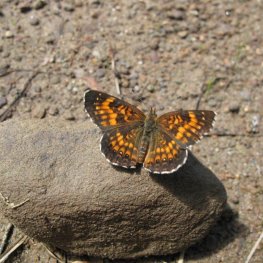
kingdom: Animalia
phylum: Arthropoda
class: Insecta
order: Lepidoptera
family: Nymphalidae
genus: Chlosyne
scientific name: Chlosyne harrisii
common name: Harris's Checkerspot
